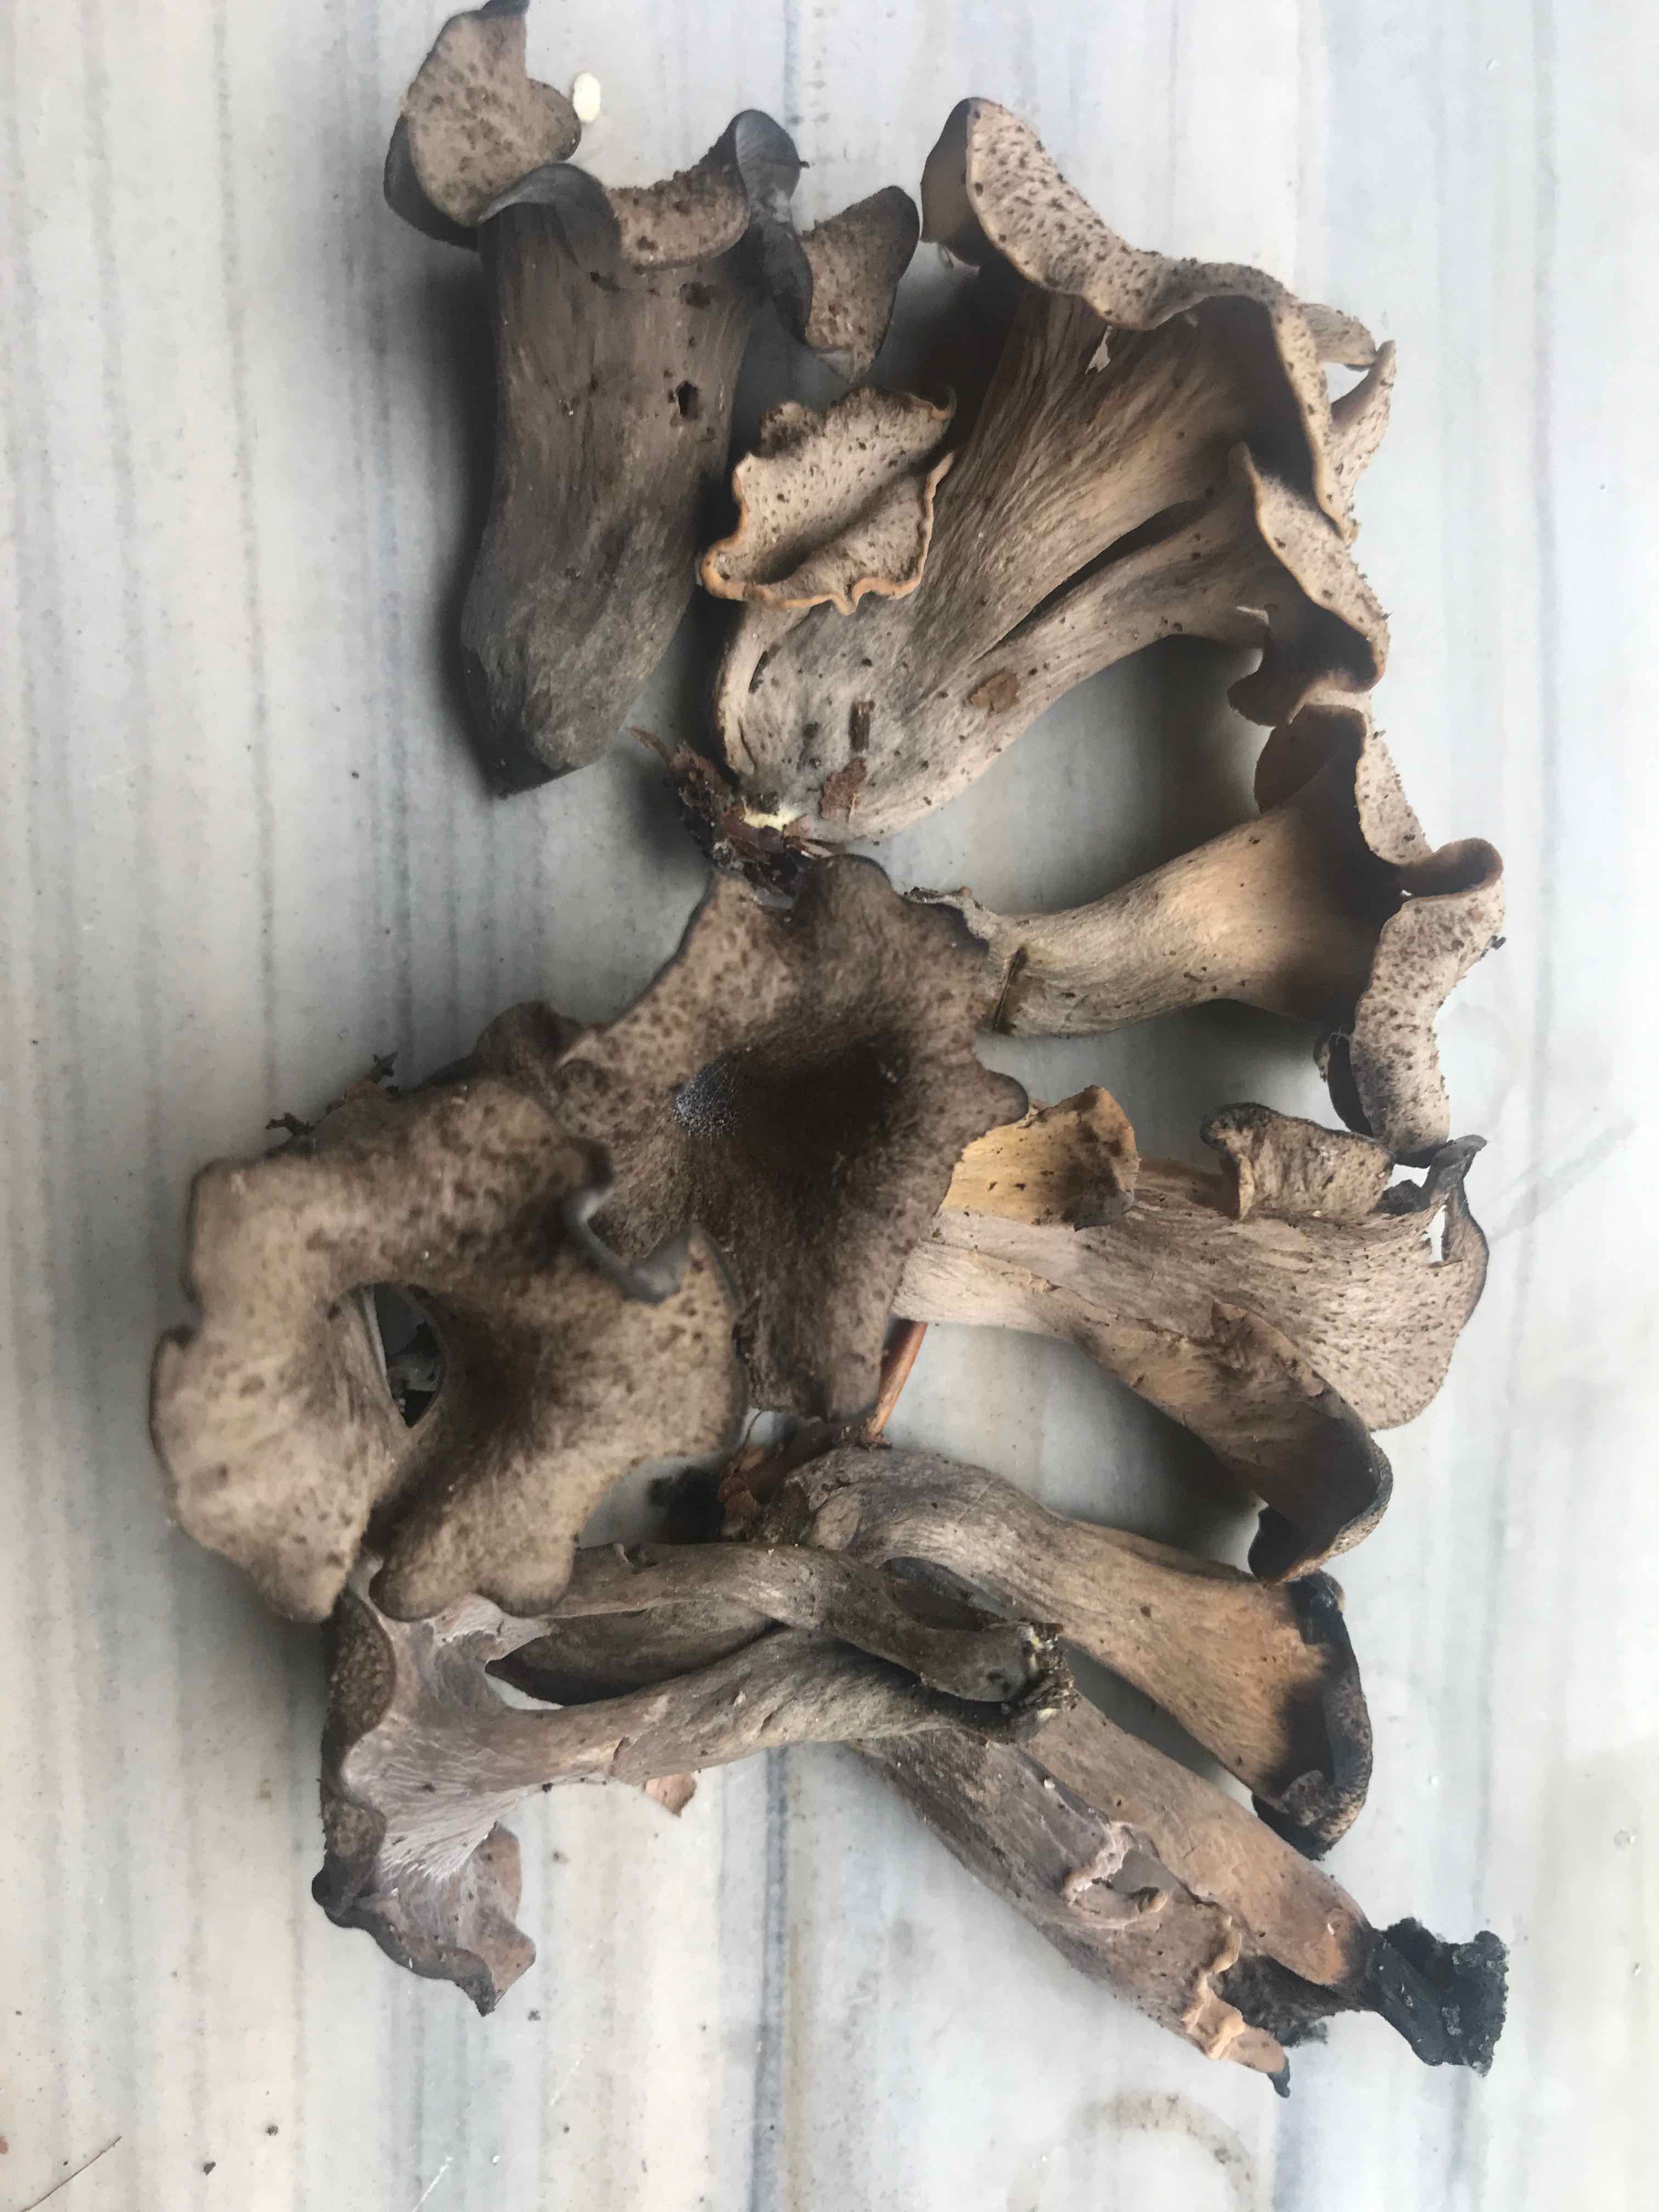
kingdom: Fungi
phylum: Basidiomycota
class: Agaricomycetes
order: Cantharellales
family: Hydnaceae
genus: Craterellus
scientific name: Craterellus cornucopioides
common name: trompetsvamp
